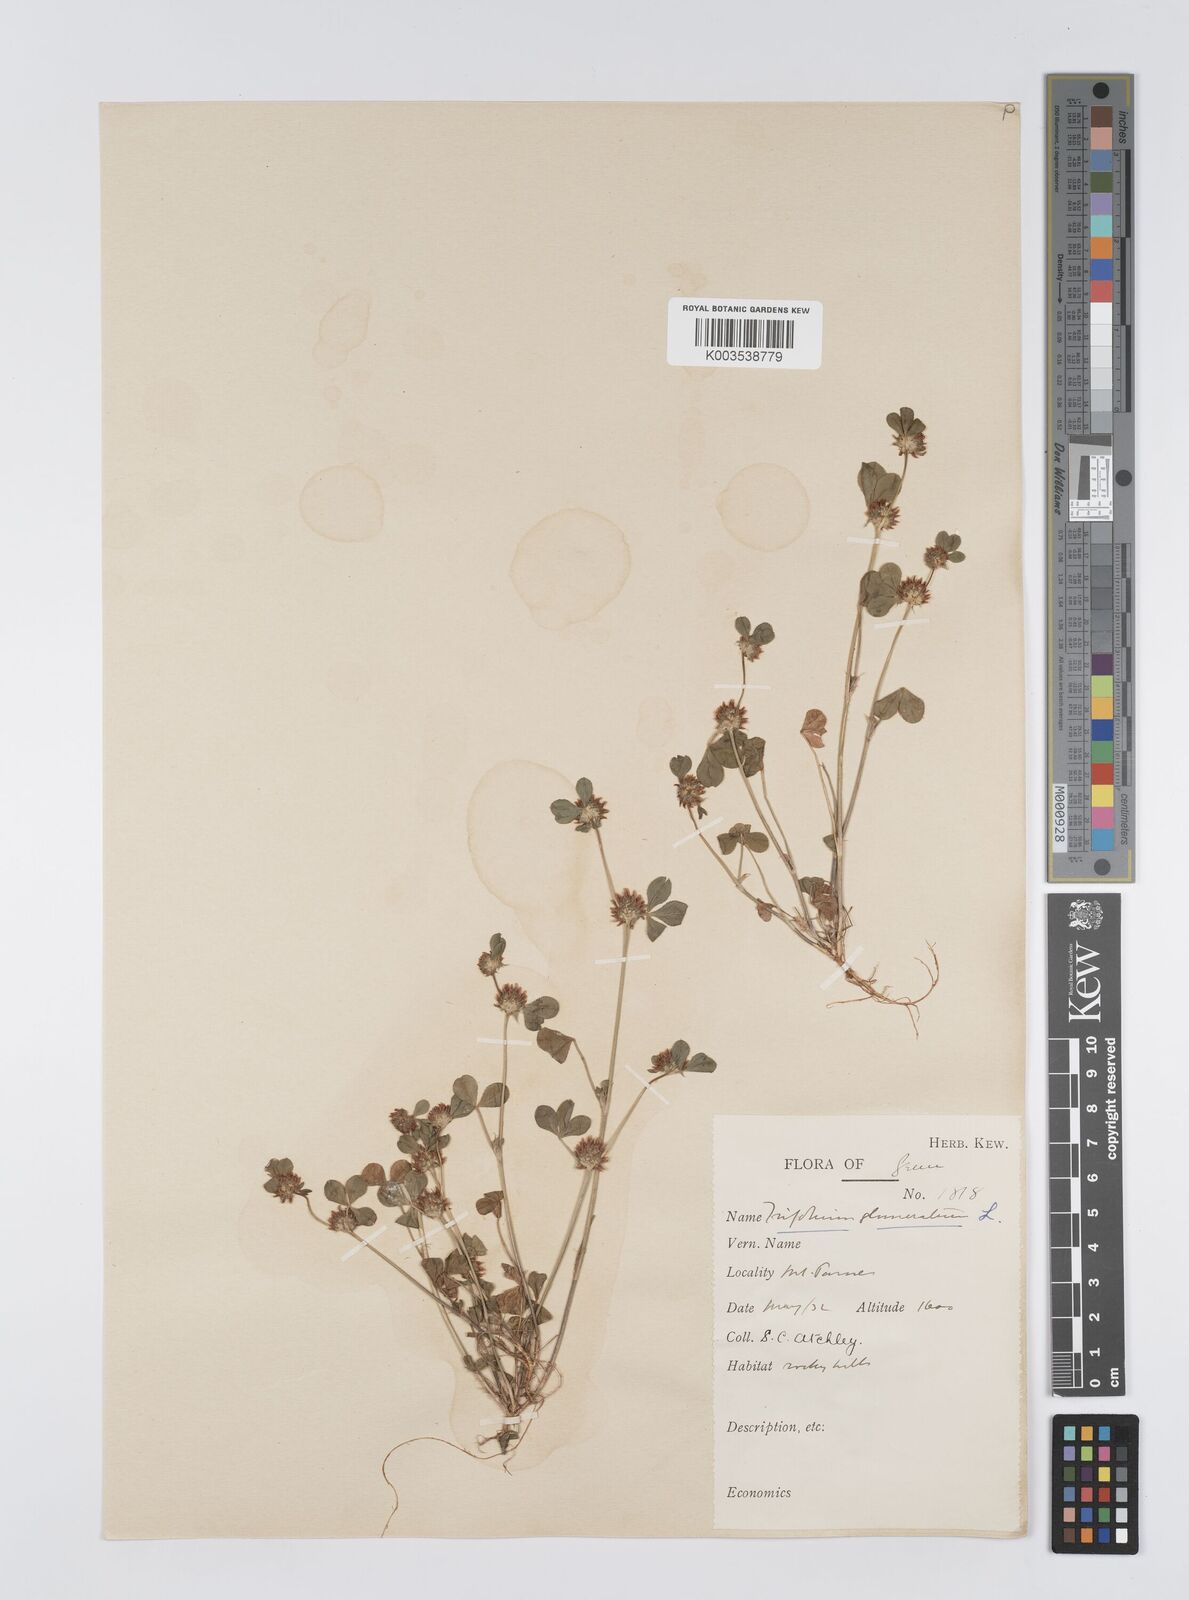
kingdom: Plantae
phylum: Tracheophyta
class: Magnoliopsida
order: Fabales
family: Fabaceae
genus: Trifolium
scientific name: Trifolium glomeratum
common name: Clustered clover
